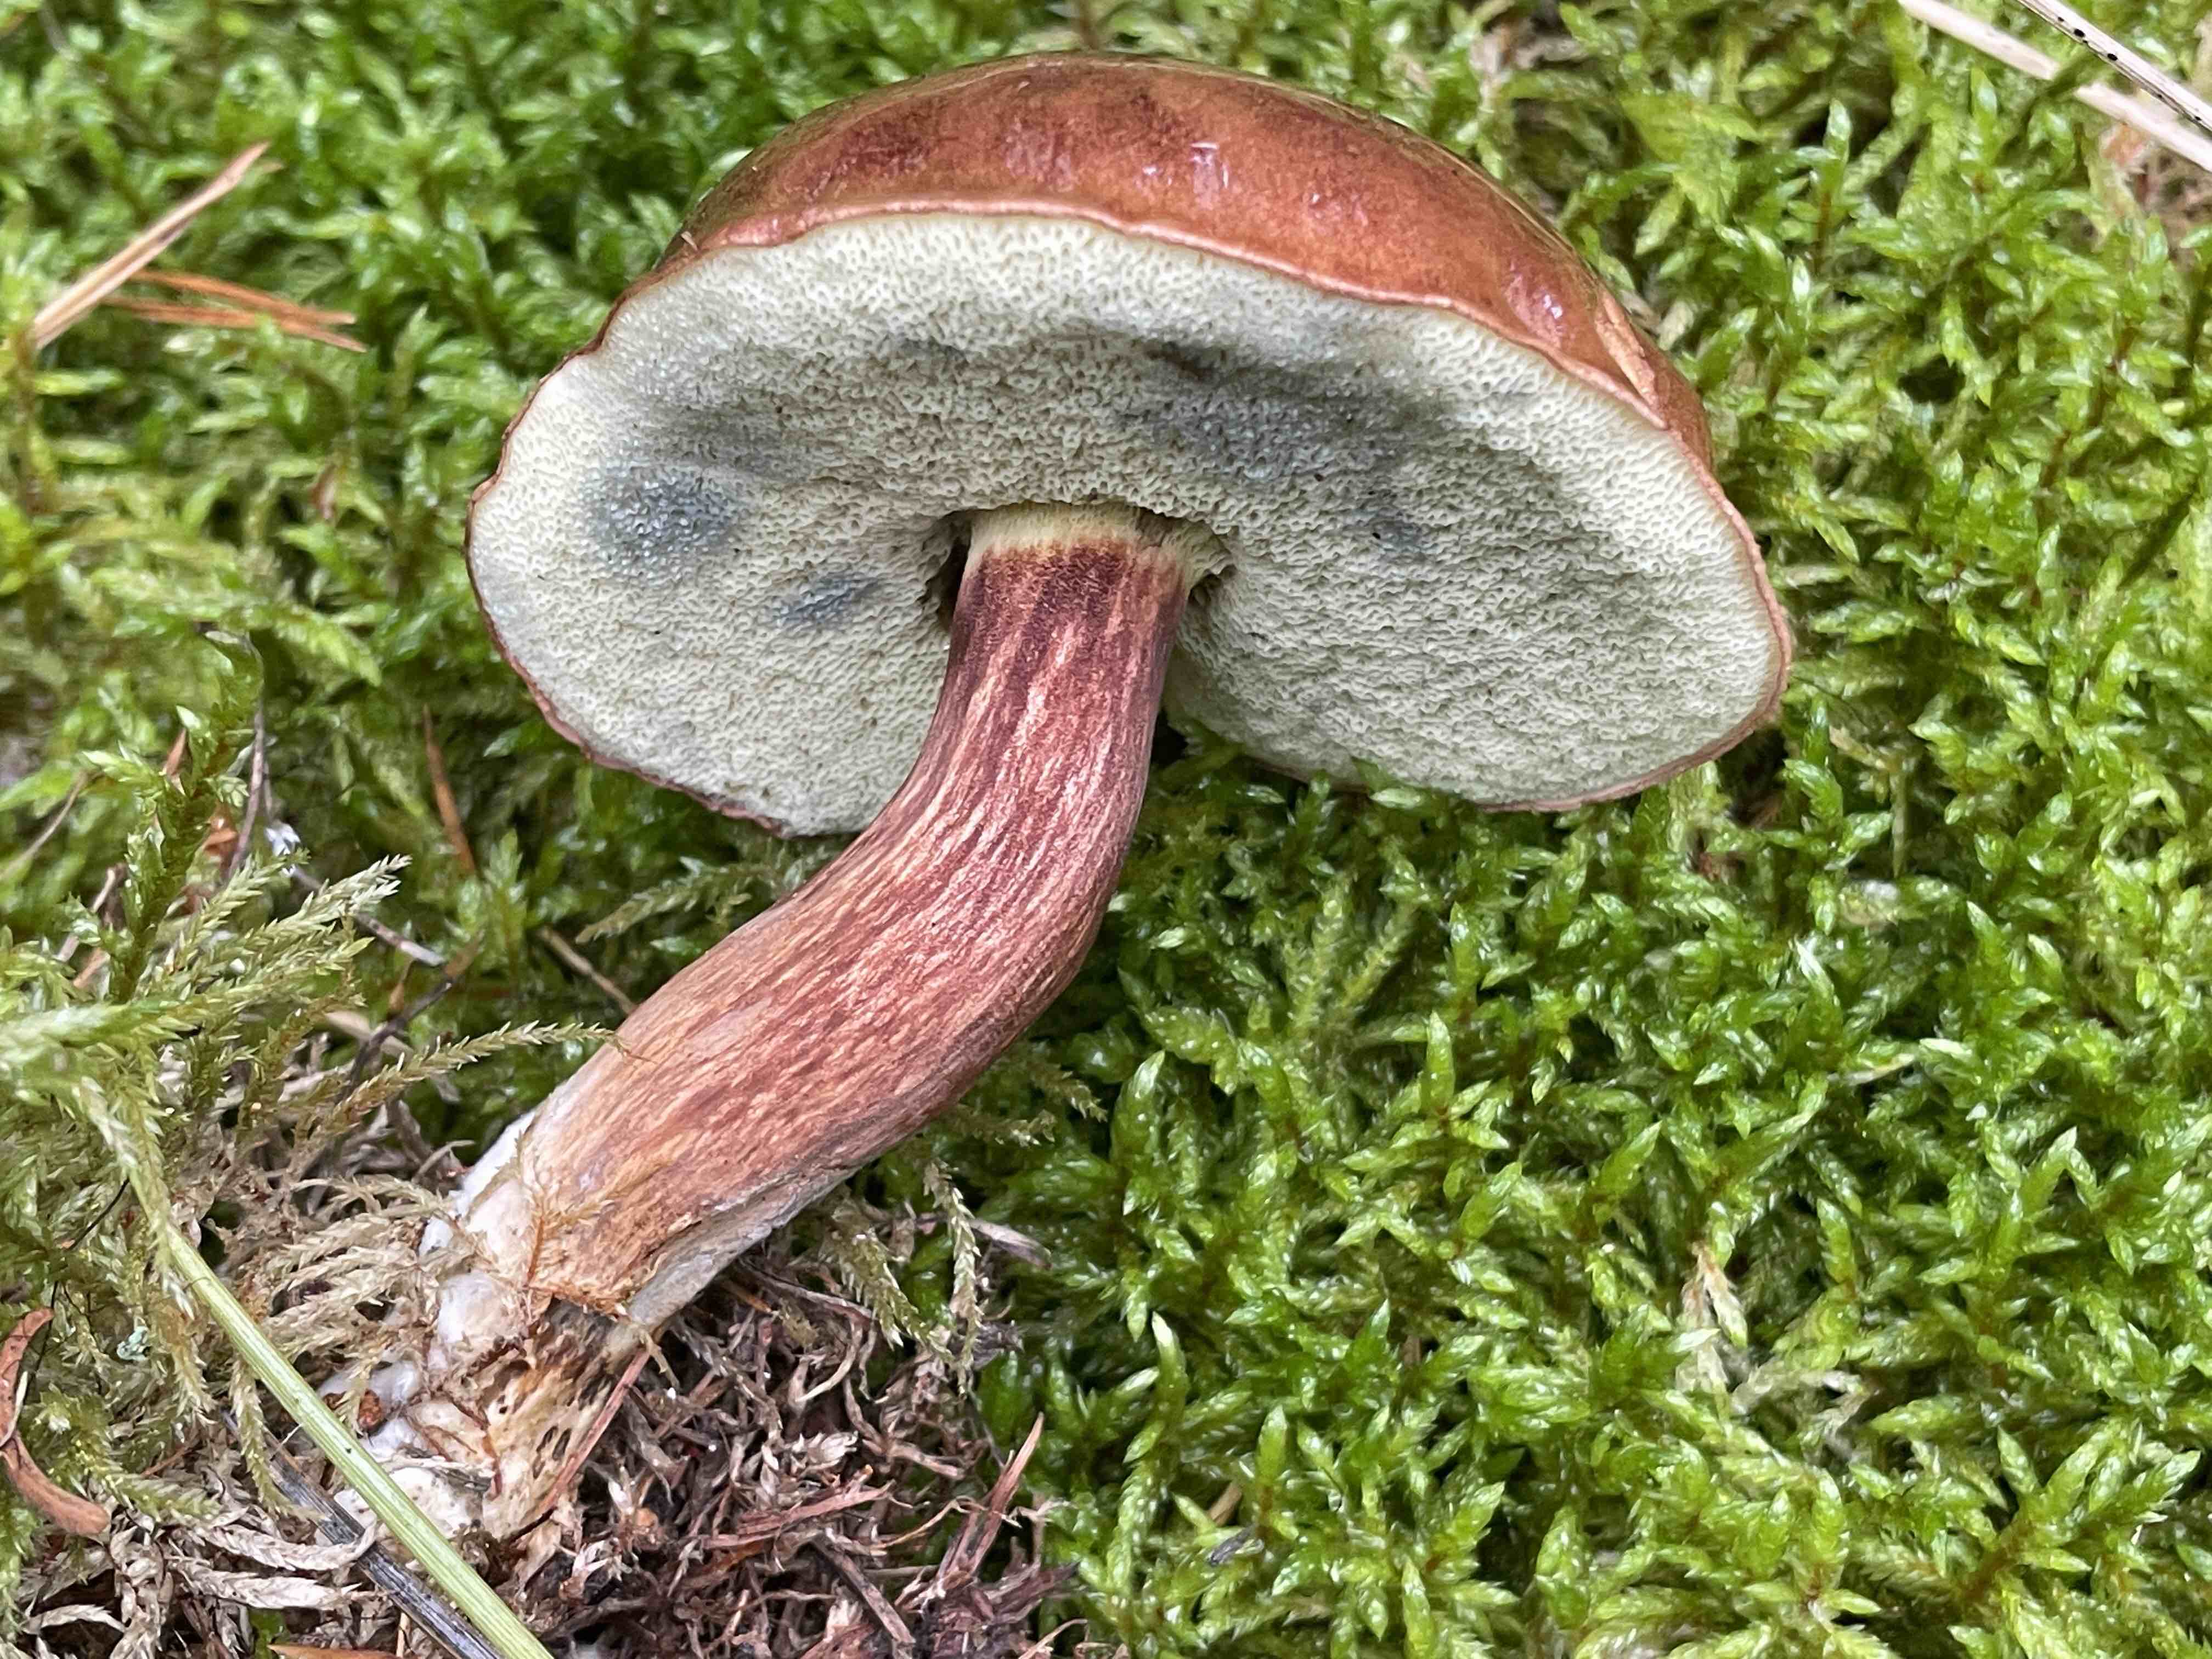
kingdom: Fungi
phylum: Basidiomycota
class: Agaricomycetes
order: Boletales
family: Boletaceae
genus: Imleria
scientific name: Imleria badia
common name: brunstokket rørhat
